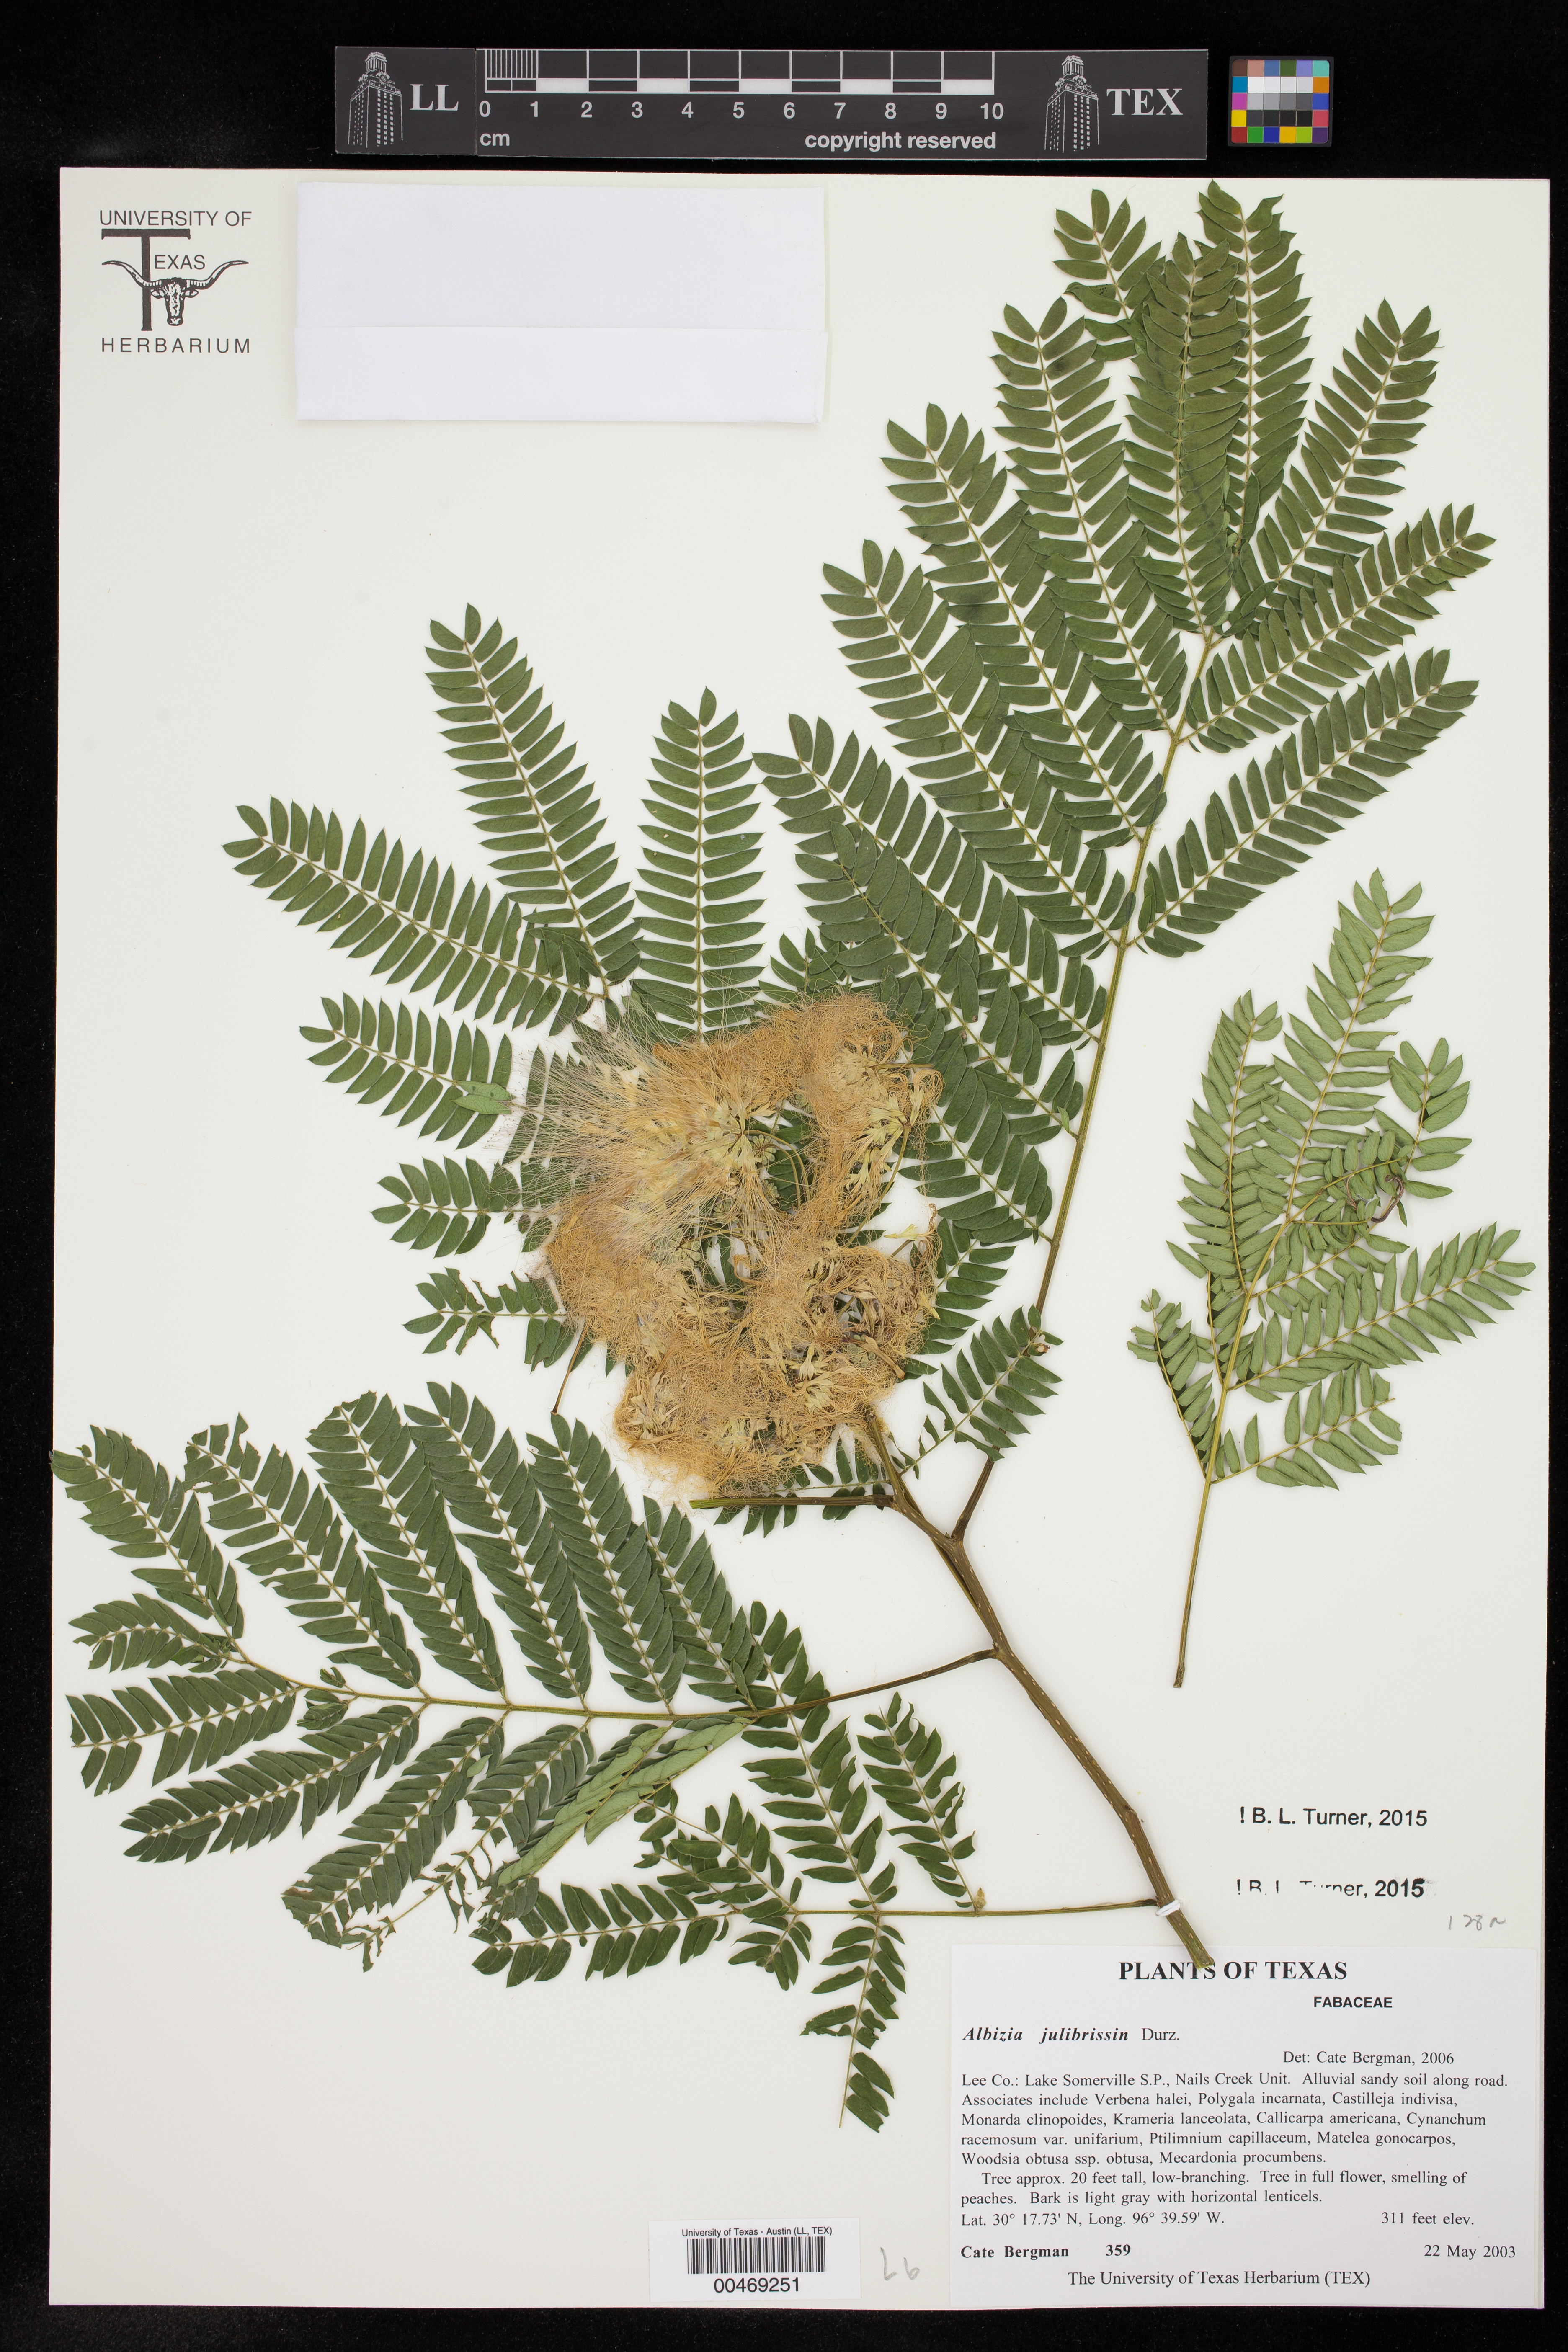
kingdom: Plantae
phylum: Tracheophyta
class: Magnoliopsida
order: Fabales
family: Fabaceae
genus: Albizia
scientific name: Albizia julibrissin
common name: Silktree
